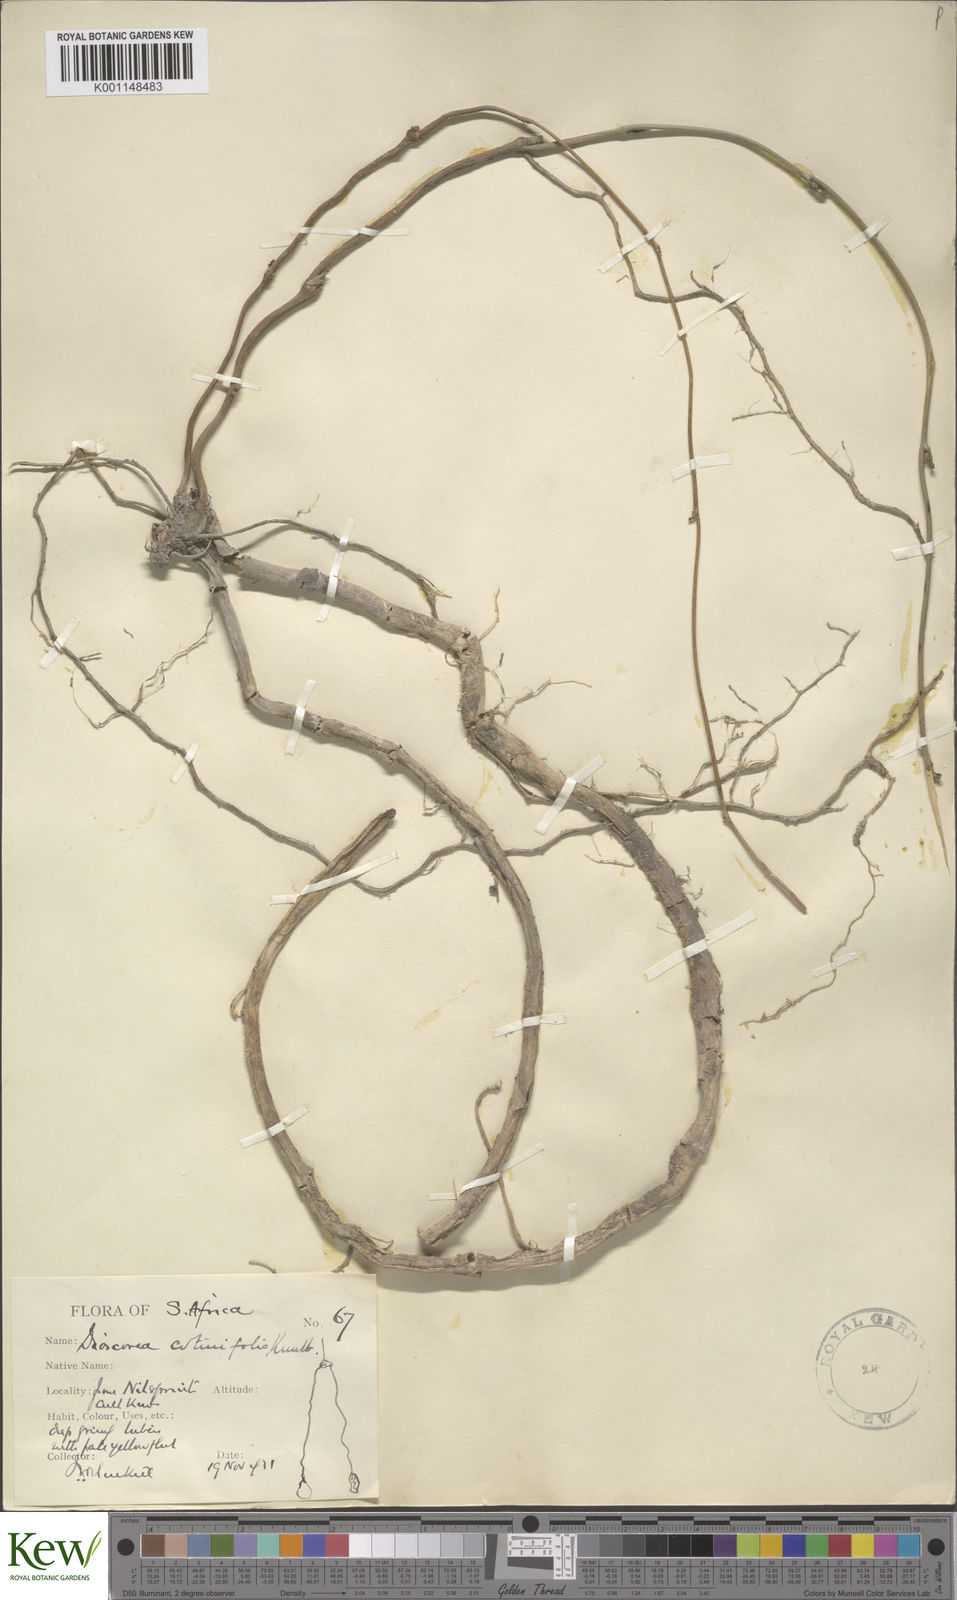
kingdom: Plantae
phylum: Tracheophyta
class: Liliopsida
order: Dioscoreales
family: Dioscoreaceae
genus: Dioscorea
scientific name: Dioscorea cotinifolia
